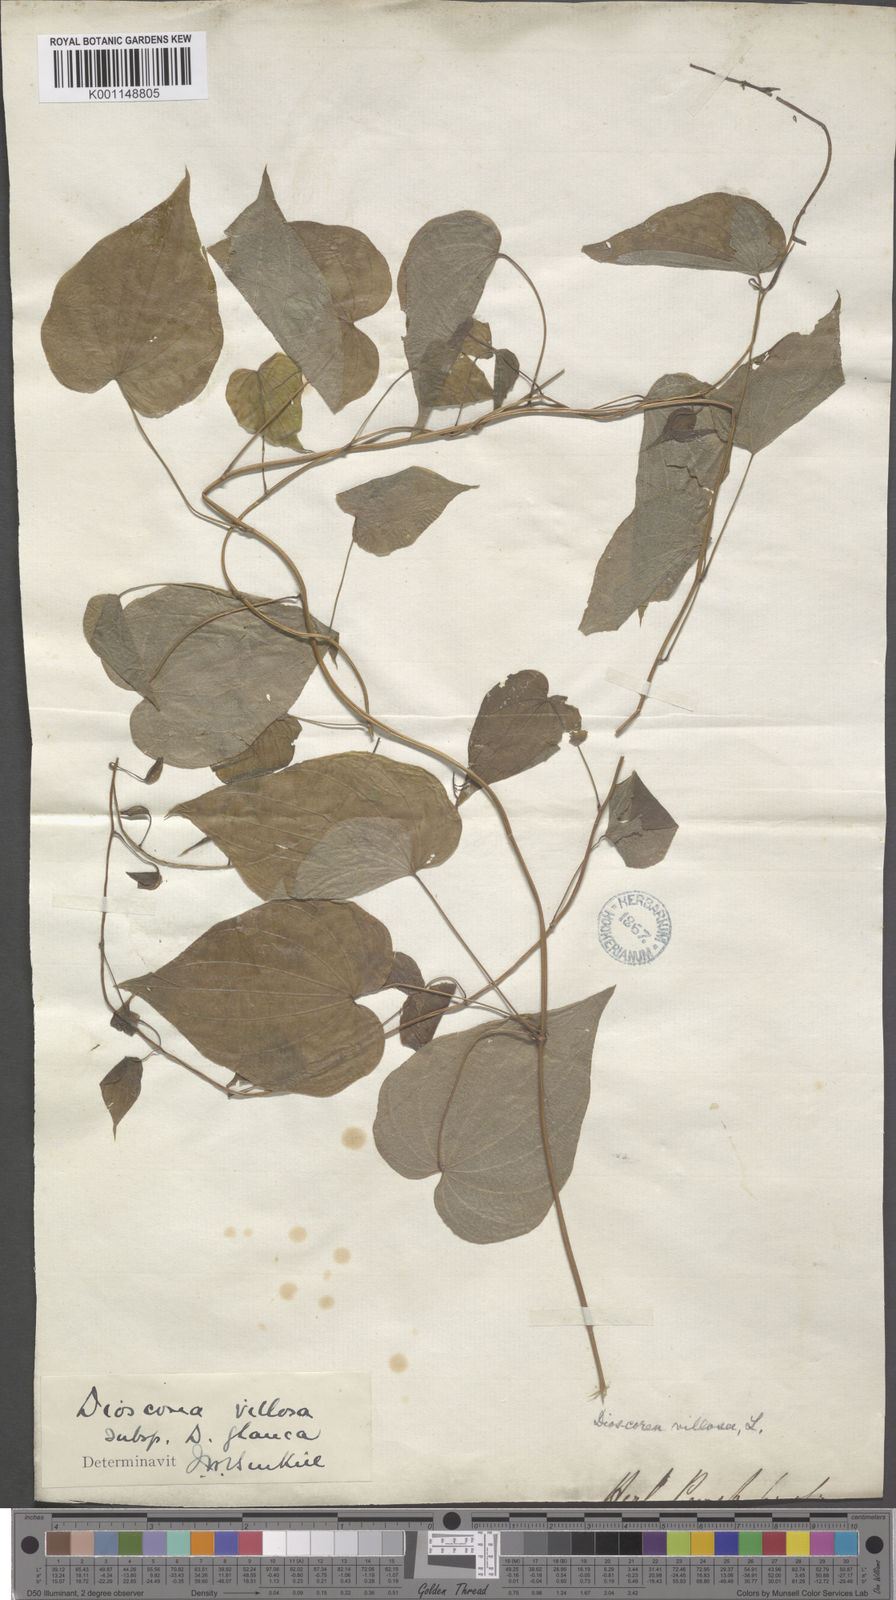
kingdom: Plantae
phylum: Tracheophyta
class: Liliopsida
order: Dioscoreales
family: Dioscoreaceae
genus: Dioscorea
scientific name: Dioscorea villosa
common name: Wild yam
